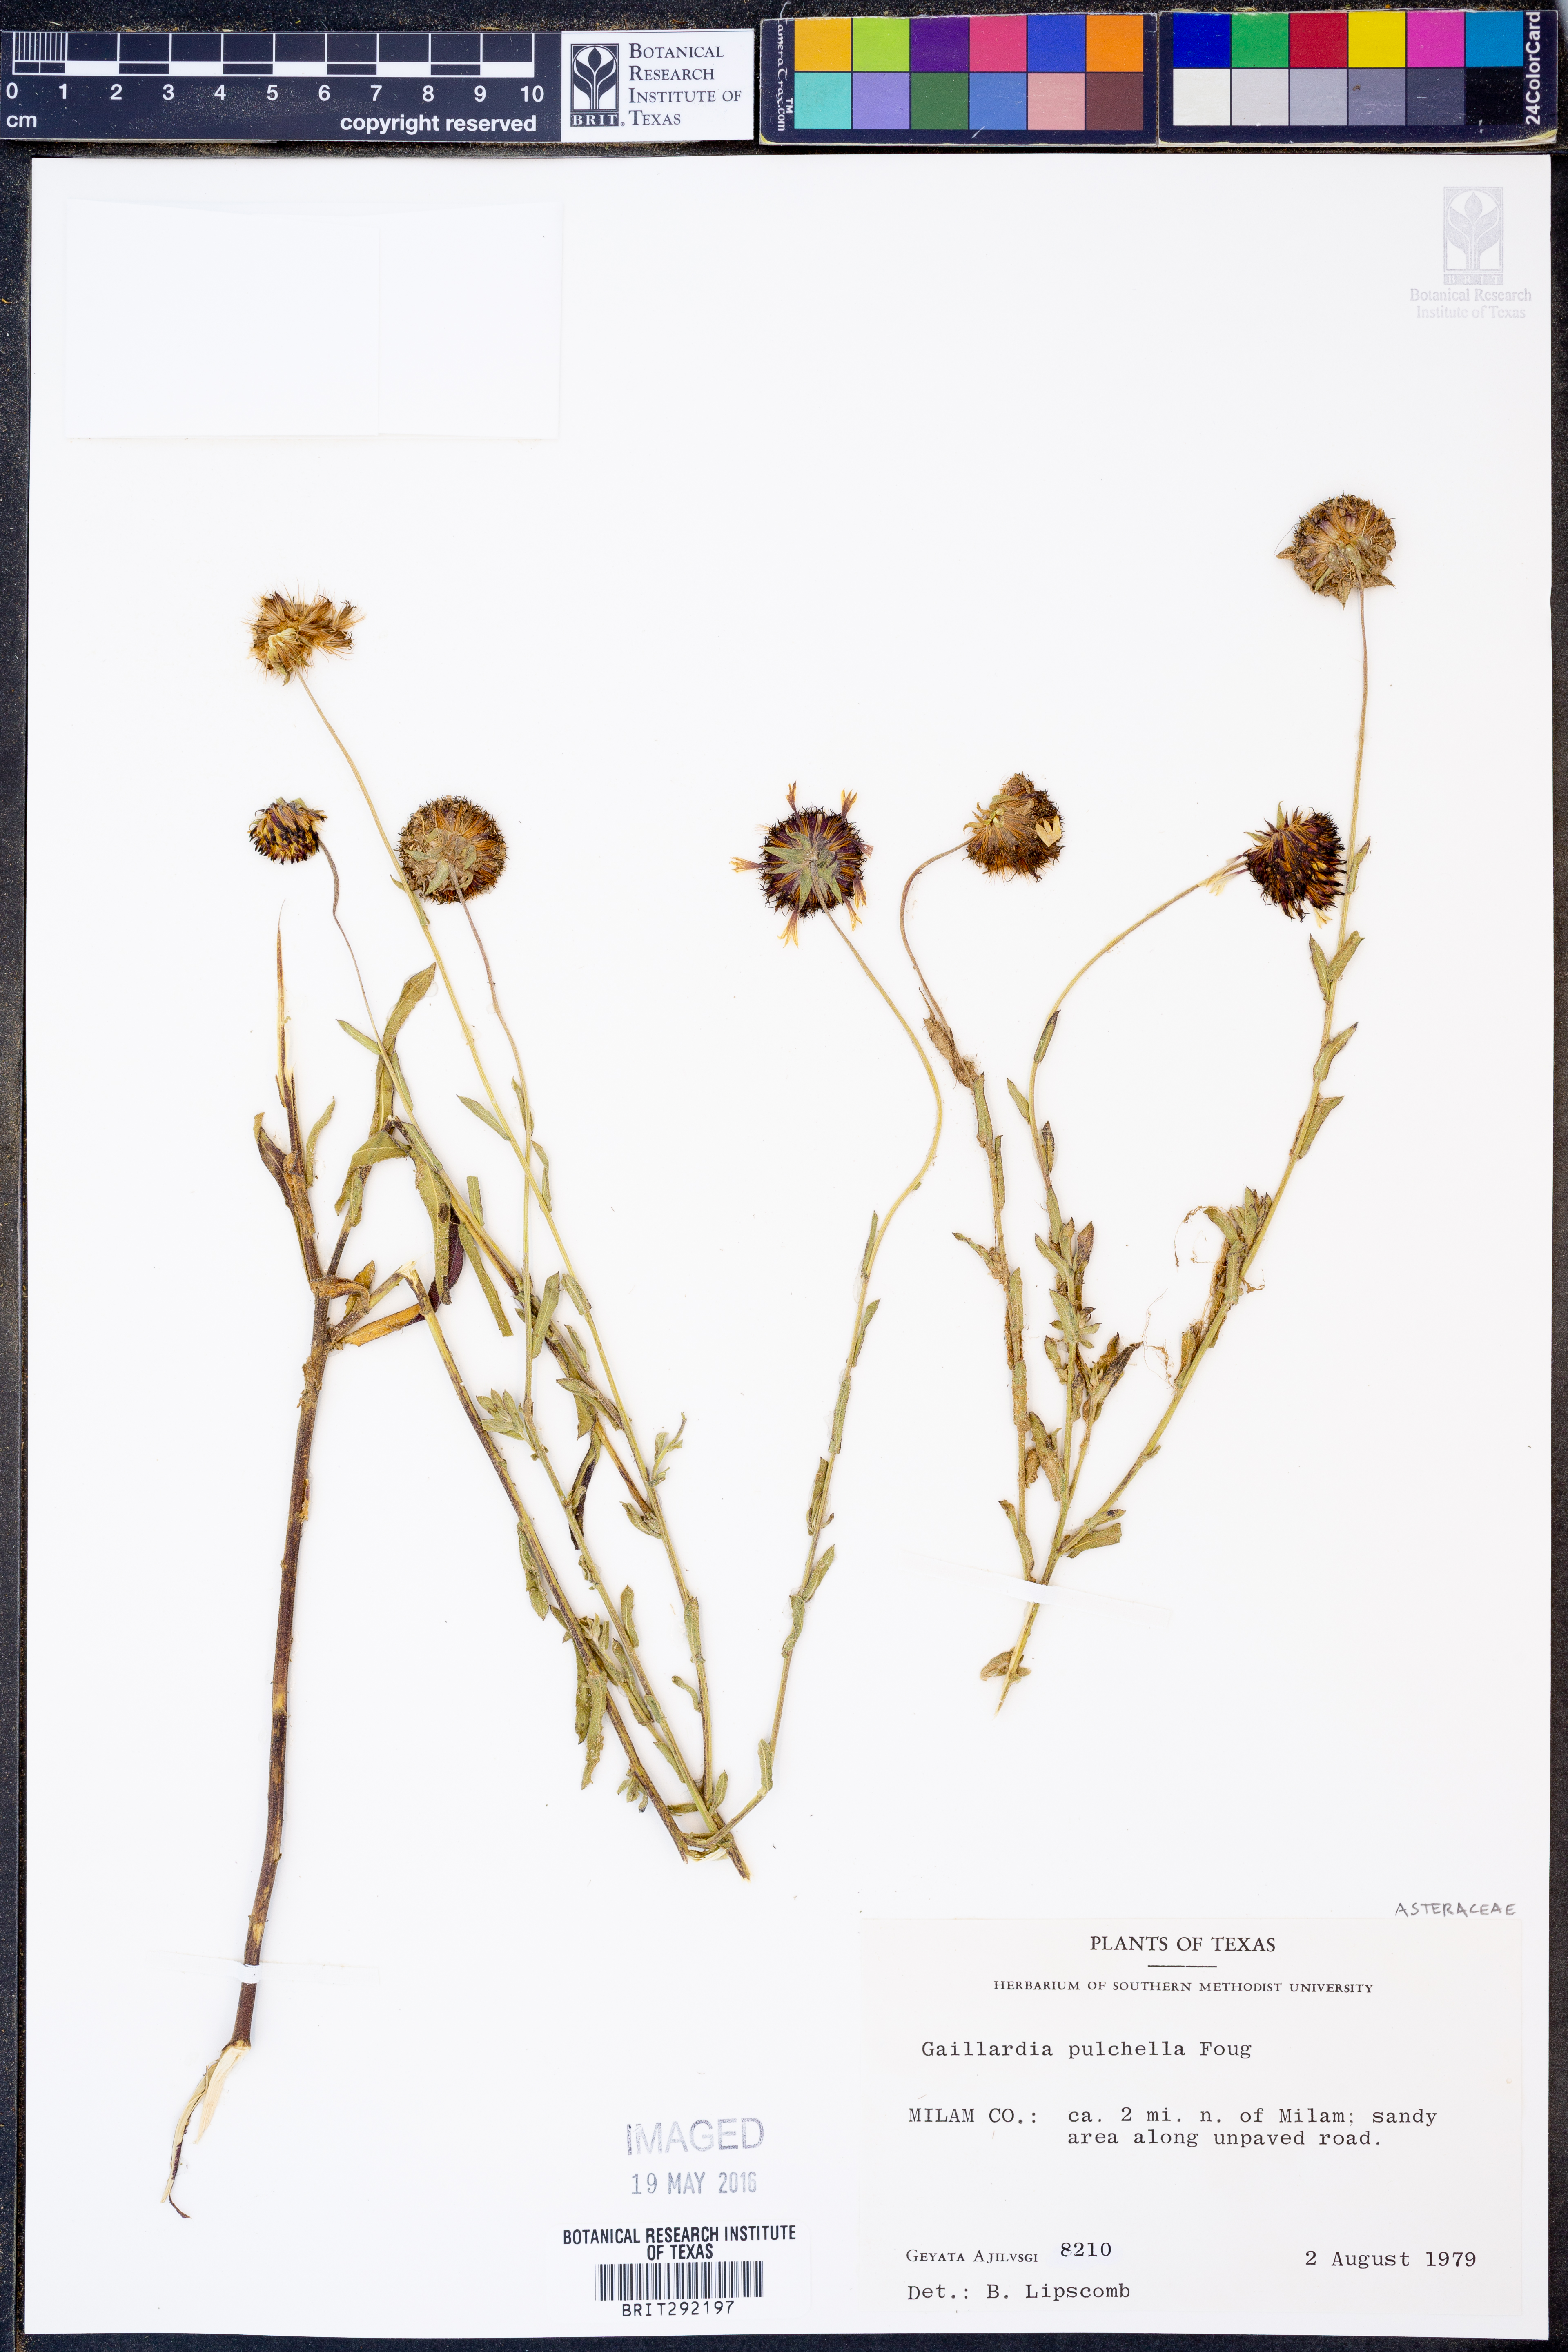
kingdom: Plantae
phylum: Tracheophyta
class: Magnoliopsida
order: Asterales
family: Asteraceae
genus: Gaillardia
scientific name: Gaillardia pulchella
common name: Firewheel
